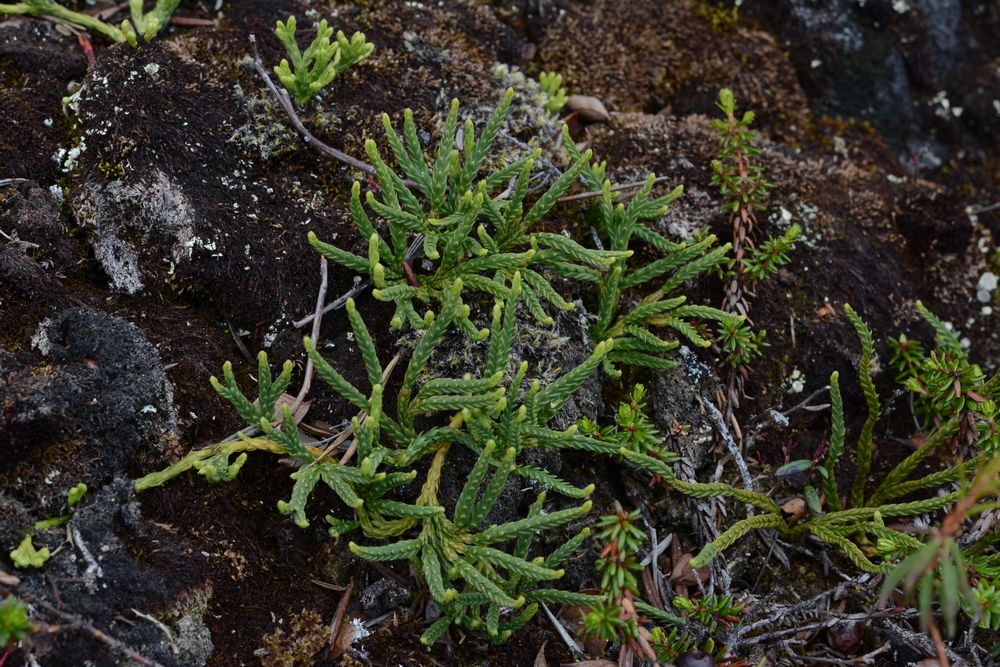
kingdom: Plantae
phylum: Tracheophyta
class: Lycopodiopsida
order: Lycopodiales
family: Lycopodiaceae
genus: Diphasiastrum
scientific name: Diphasiastrum alpinum
